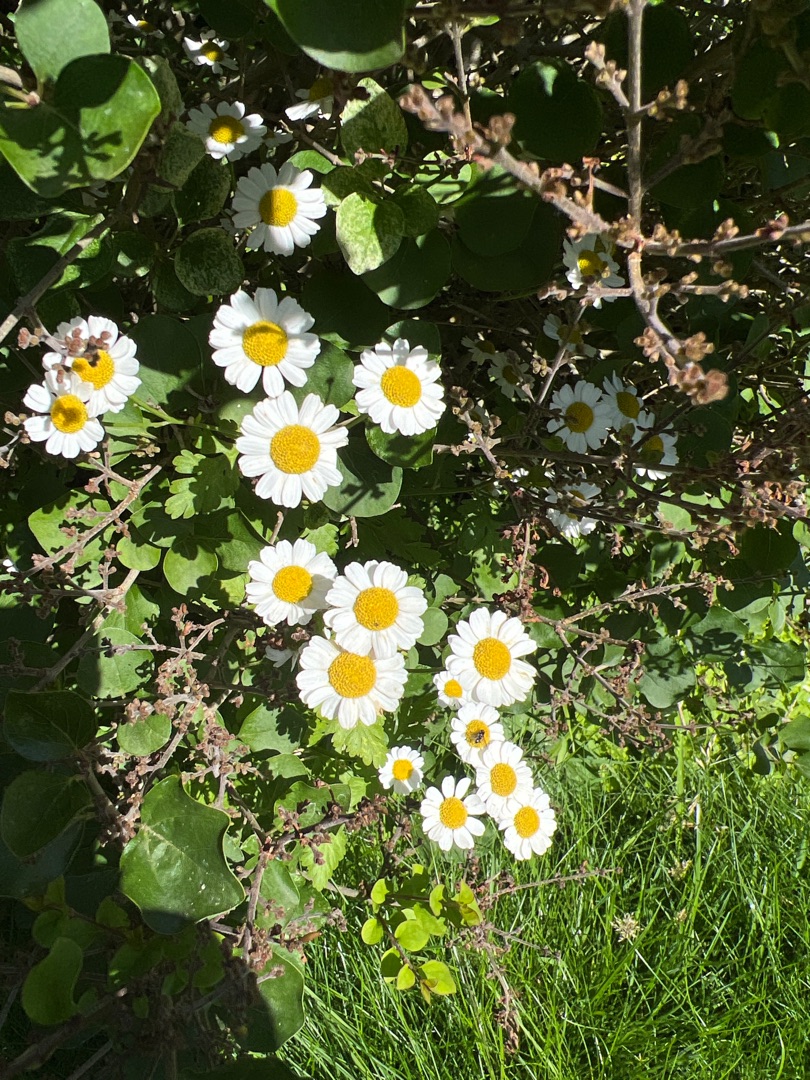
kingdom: Plantae
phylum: Tracheophyta
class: Magnoliopsida
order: Asterales
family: Asteraceae
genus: Tanacetum
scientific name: Tanacetum parthenium
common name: Matrem
